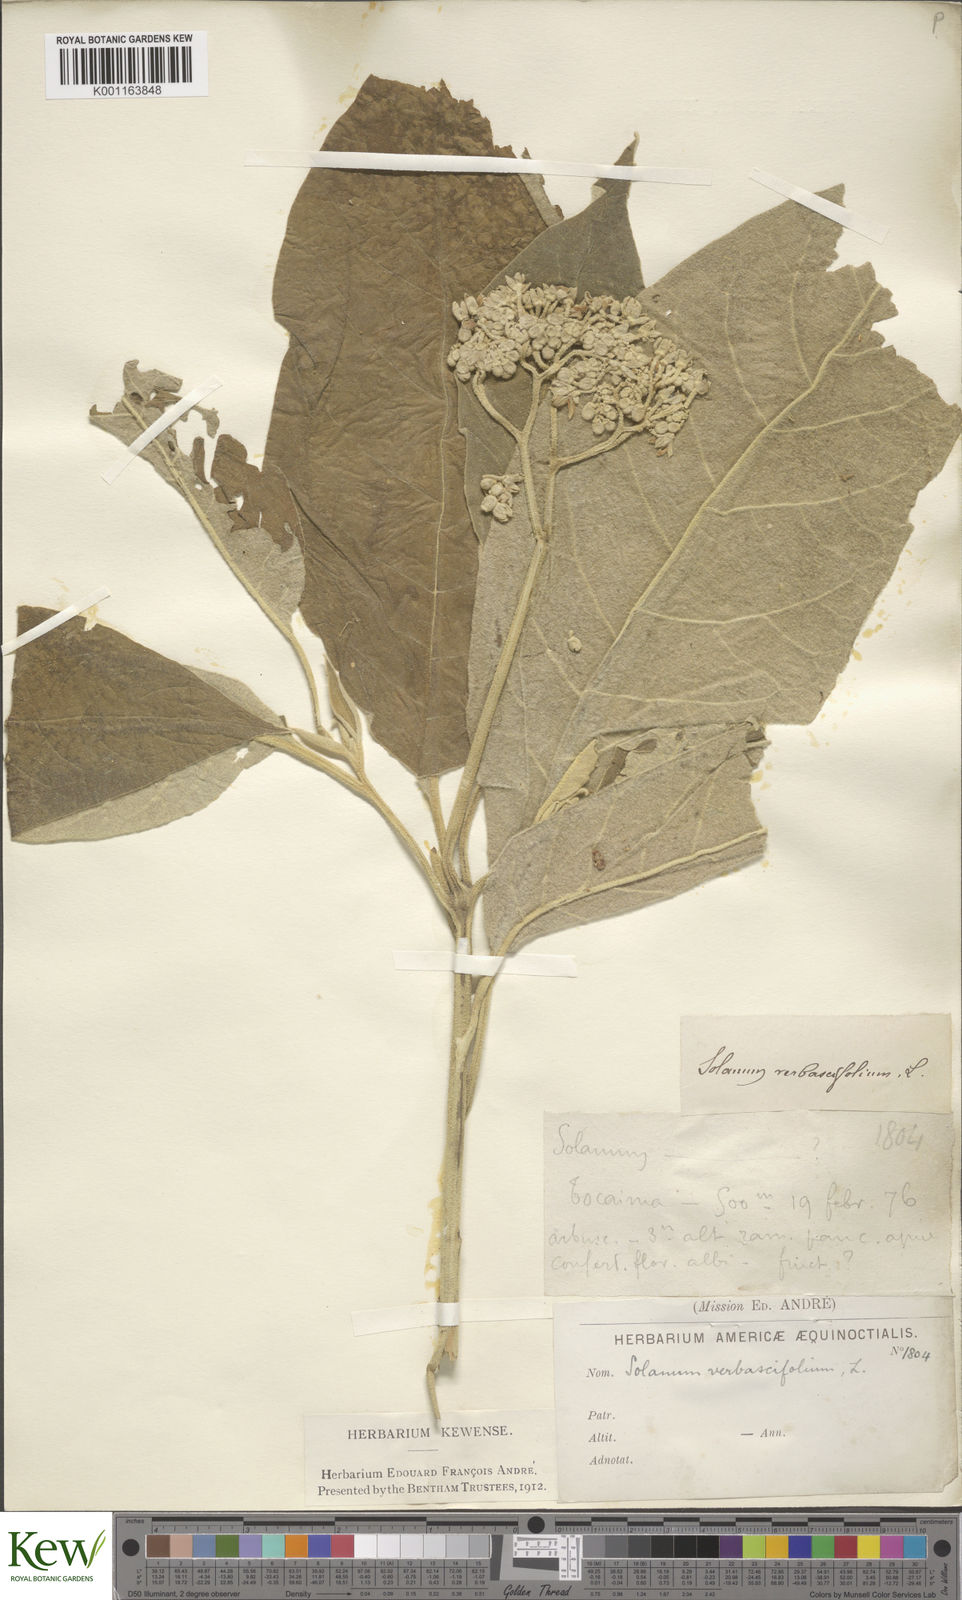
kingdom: Plantae
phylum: Tracheophyta
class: Magnoliopsida
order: Solanales
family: Solanaceae
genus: Solanum
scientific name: Solanum erianthum
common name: Tobacco-tree
